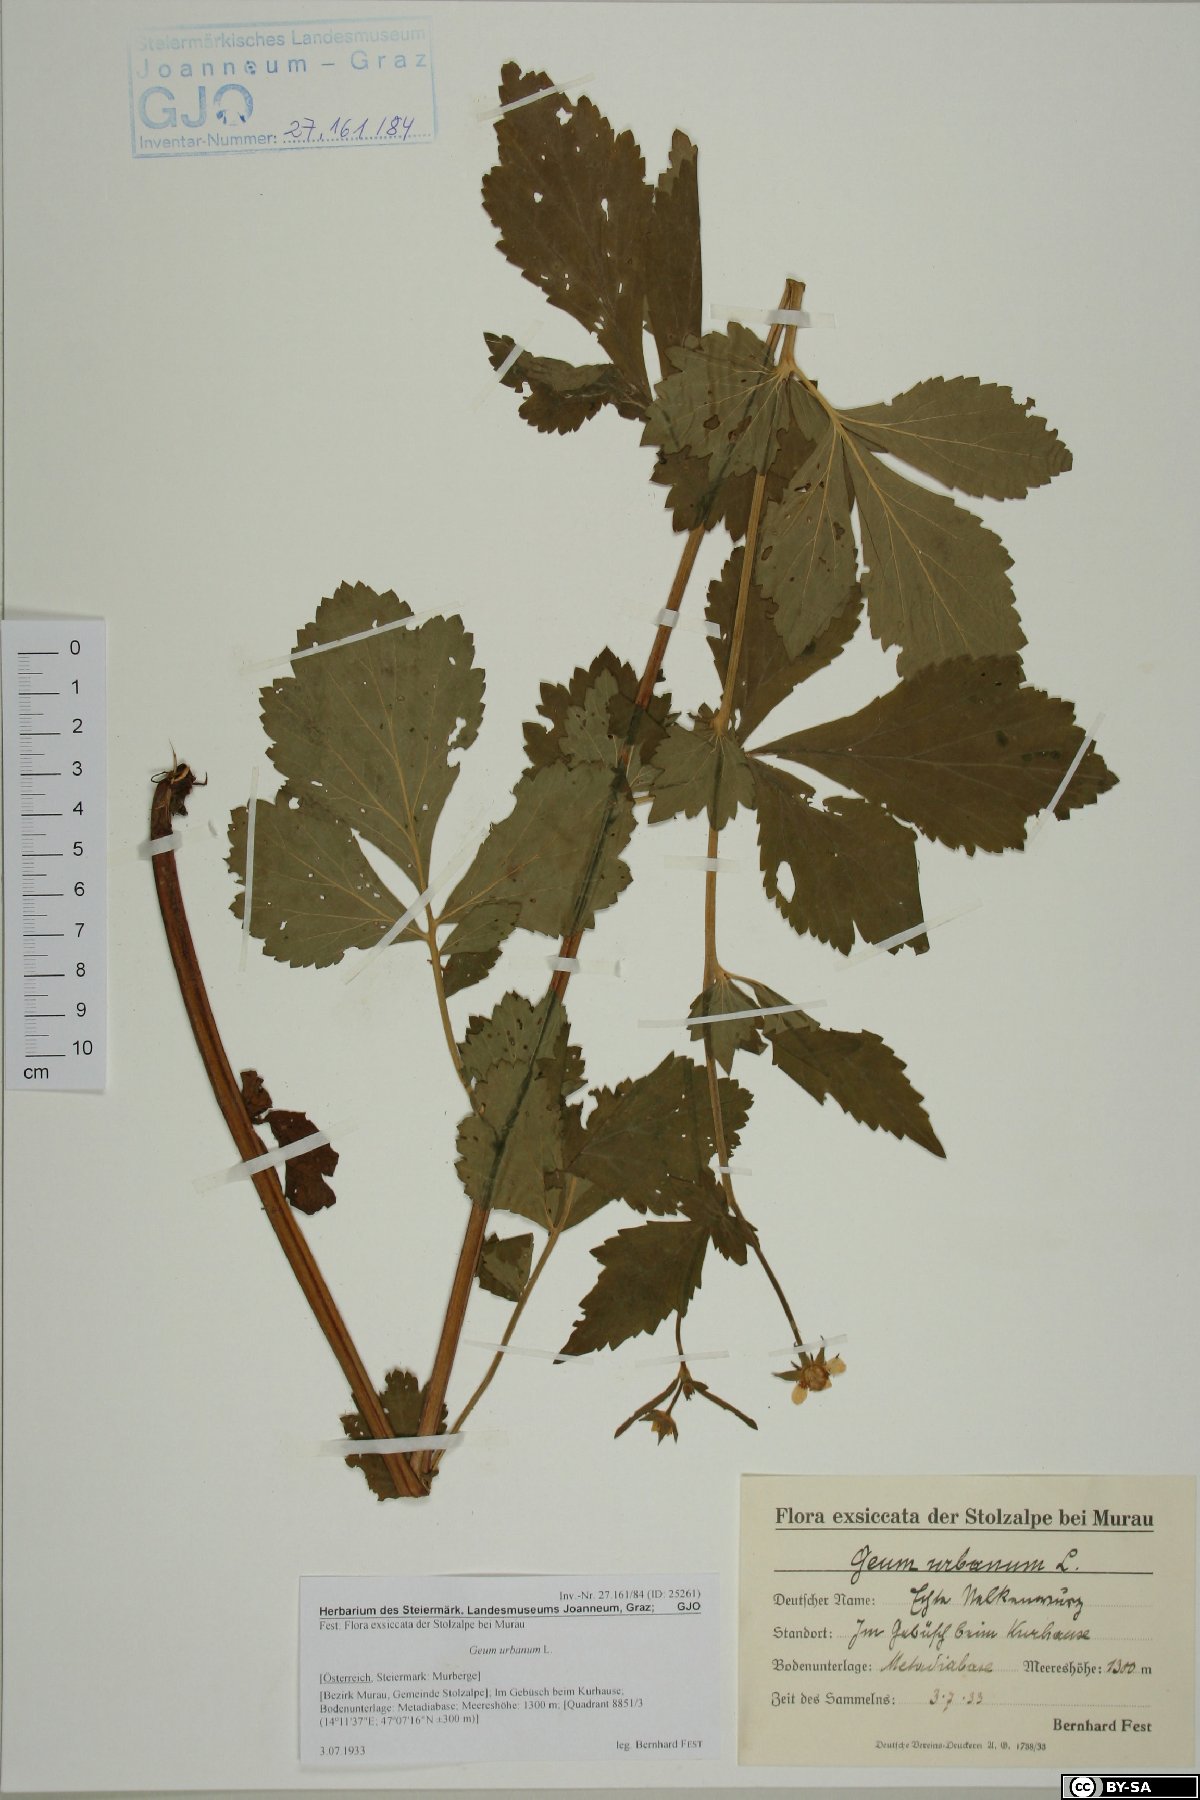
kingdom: Plantae
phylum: Tracheophyta
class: Magnoliopsida
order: Rosales
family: Rosaceae
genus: Geum
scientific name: Geum urbanum
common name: Wood avens
